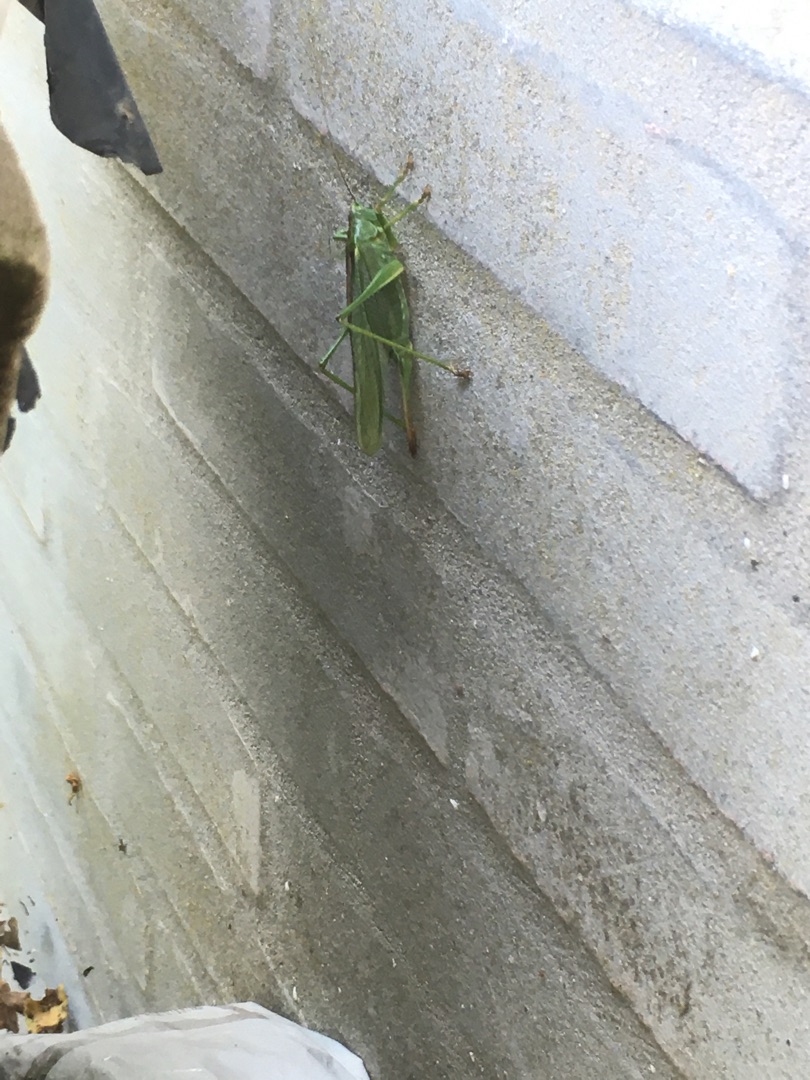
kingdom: Animalia
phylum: Arthropoda
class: Insecta
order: Orthoptera
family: Tettigoniidae
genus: Tettigonia
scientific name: Tettigonia viridissima
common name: Stor grøn løvgræshoppe
